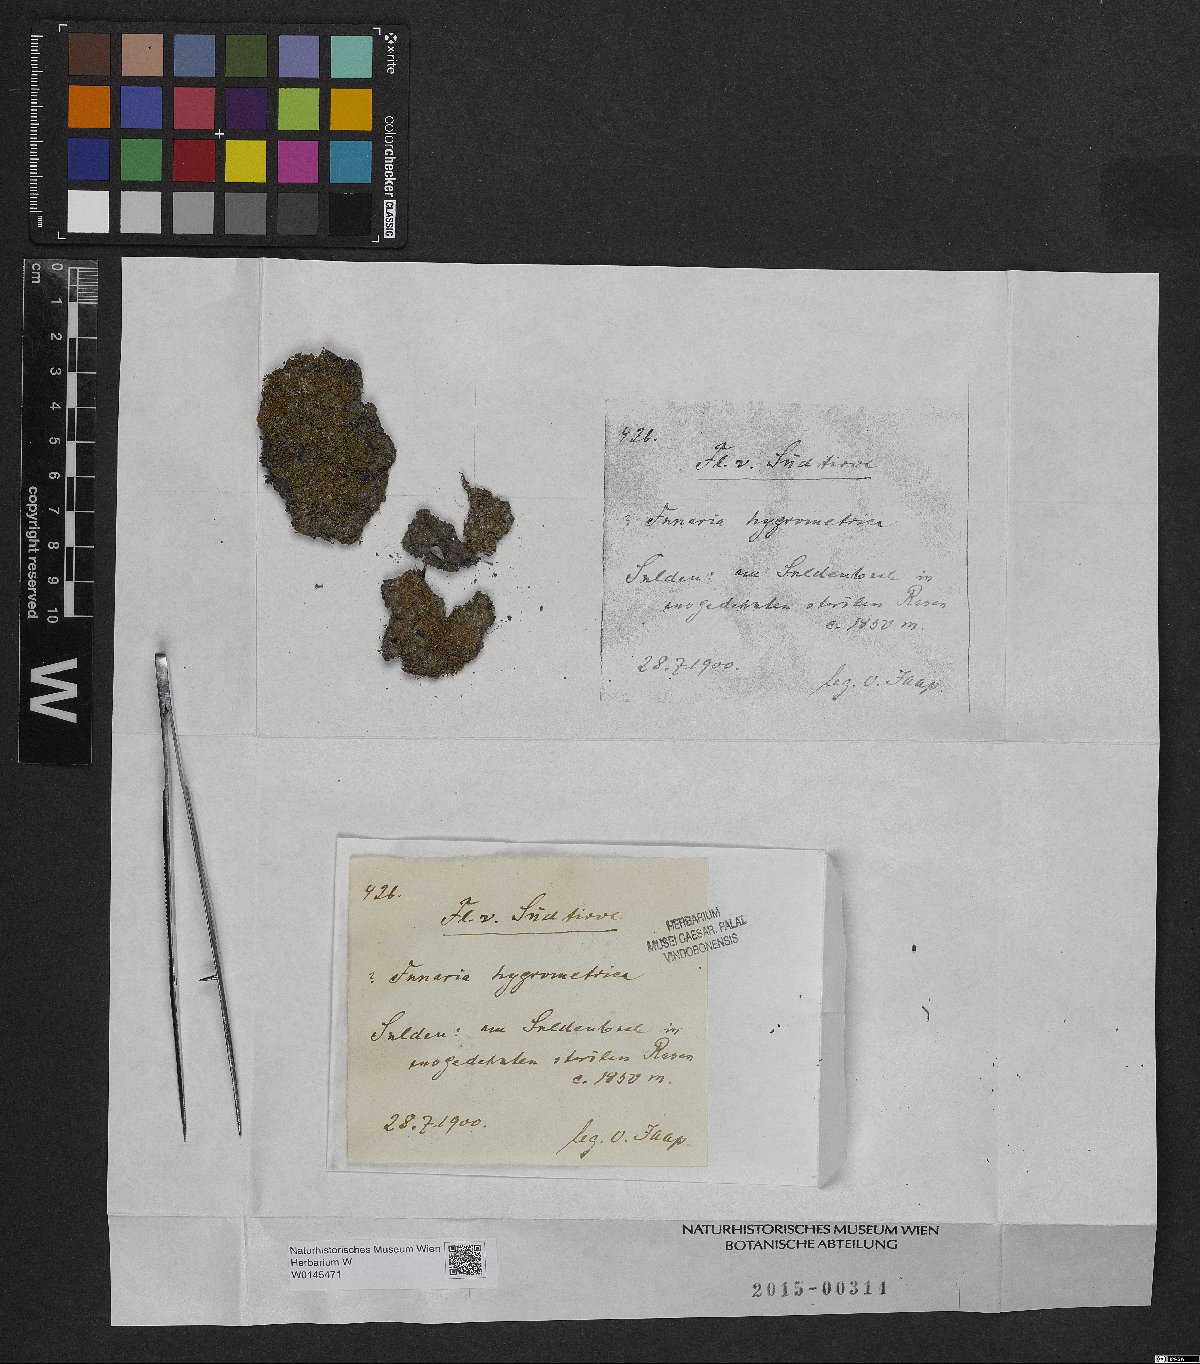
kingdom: Plantae
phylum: Bryophyta
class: Bryopsida
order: Funariales
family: Funariaceae
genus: Funaria
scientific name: Funaria hygrometrica
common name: Common cord moss
